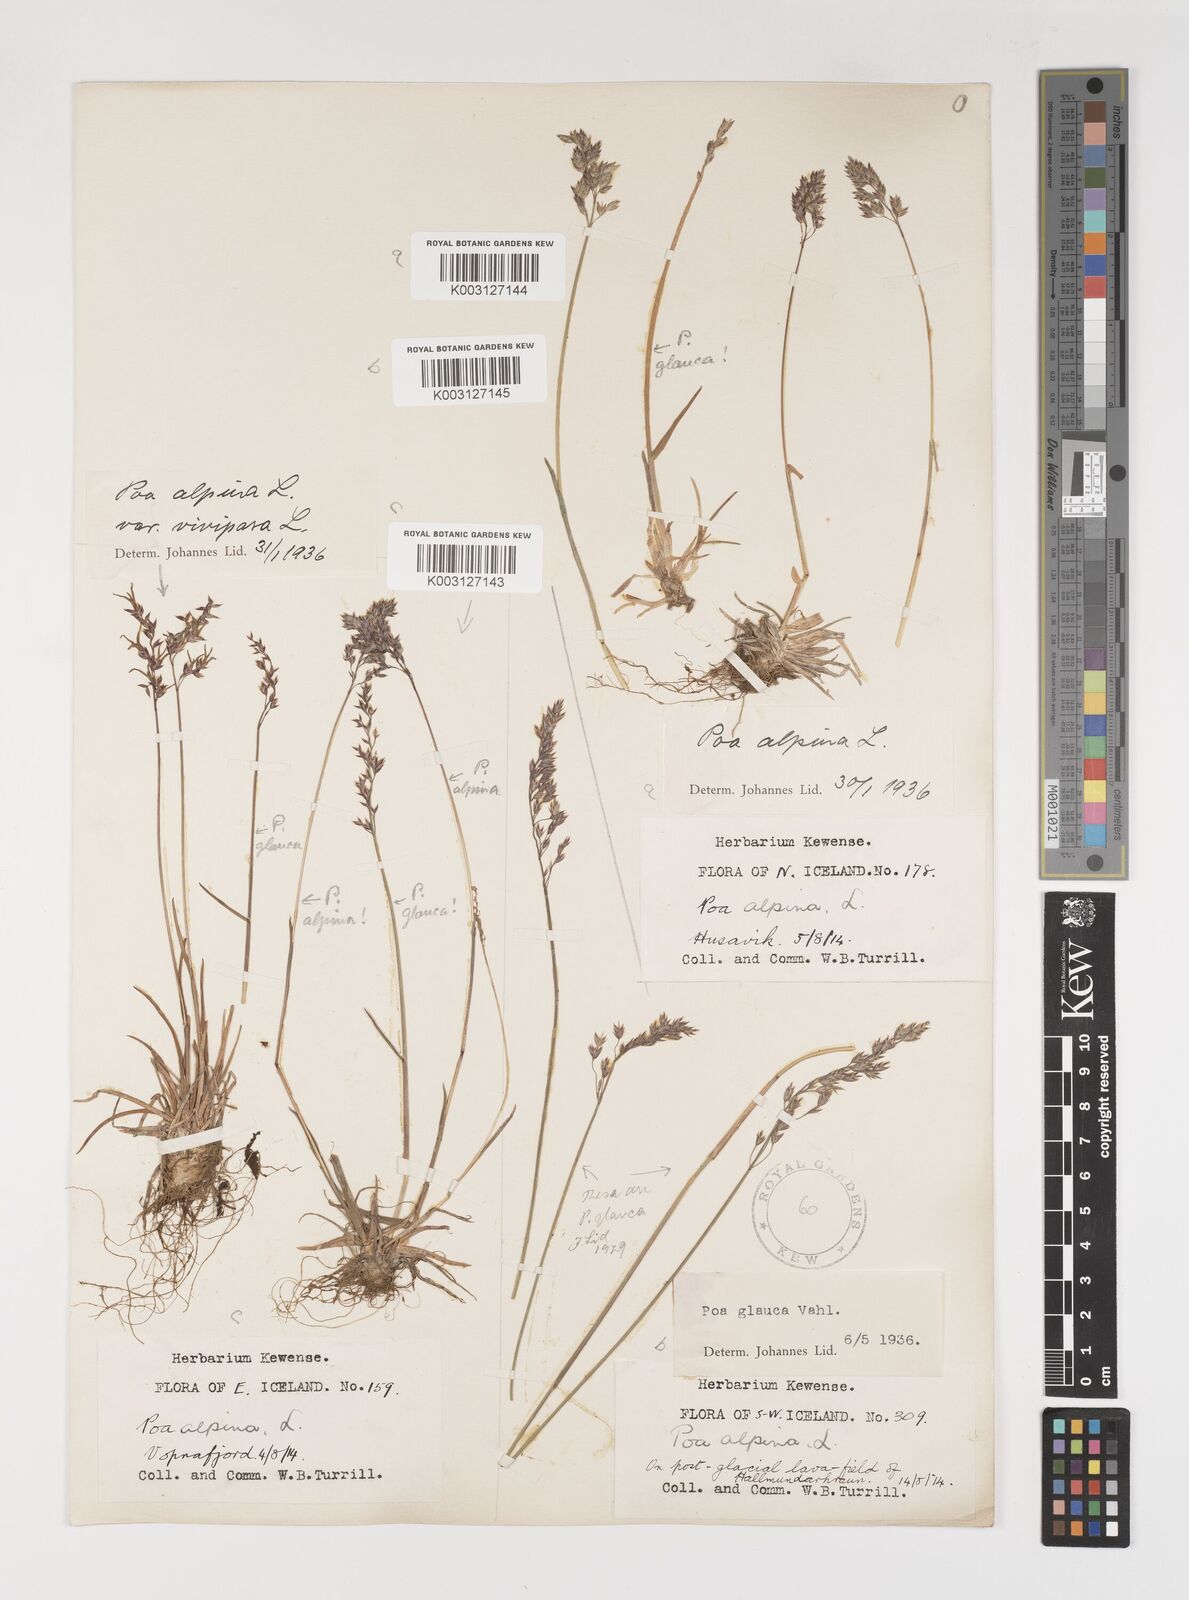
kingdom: Plantae
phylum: Tracheophyta
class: Liliopsida
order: Poales
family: Poaceae
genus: Poa
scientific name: Poa alpina
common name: Alpine bluegrass
